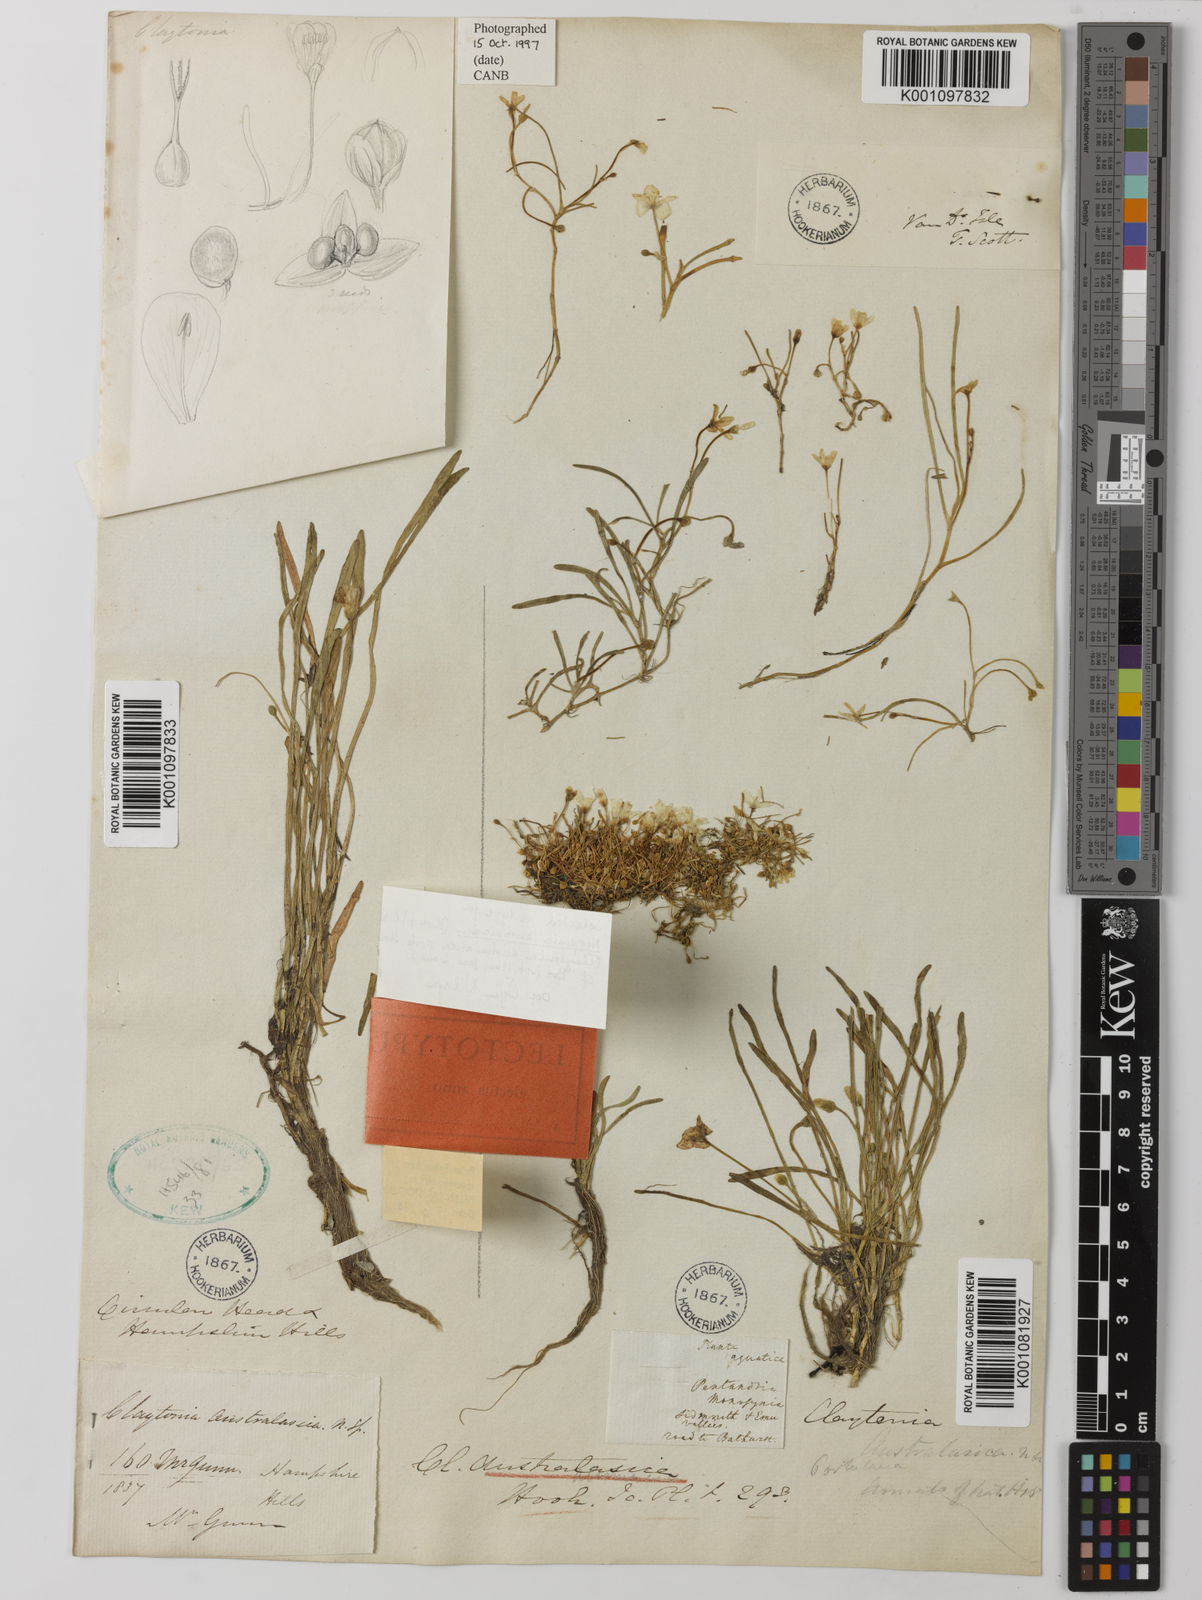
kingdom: Plantae
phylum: Tracheophyta
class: Magnoliopsida
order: Caryophyllales
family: Montiaceae
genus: Montia
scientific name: Montia australasica
